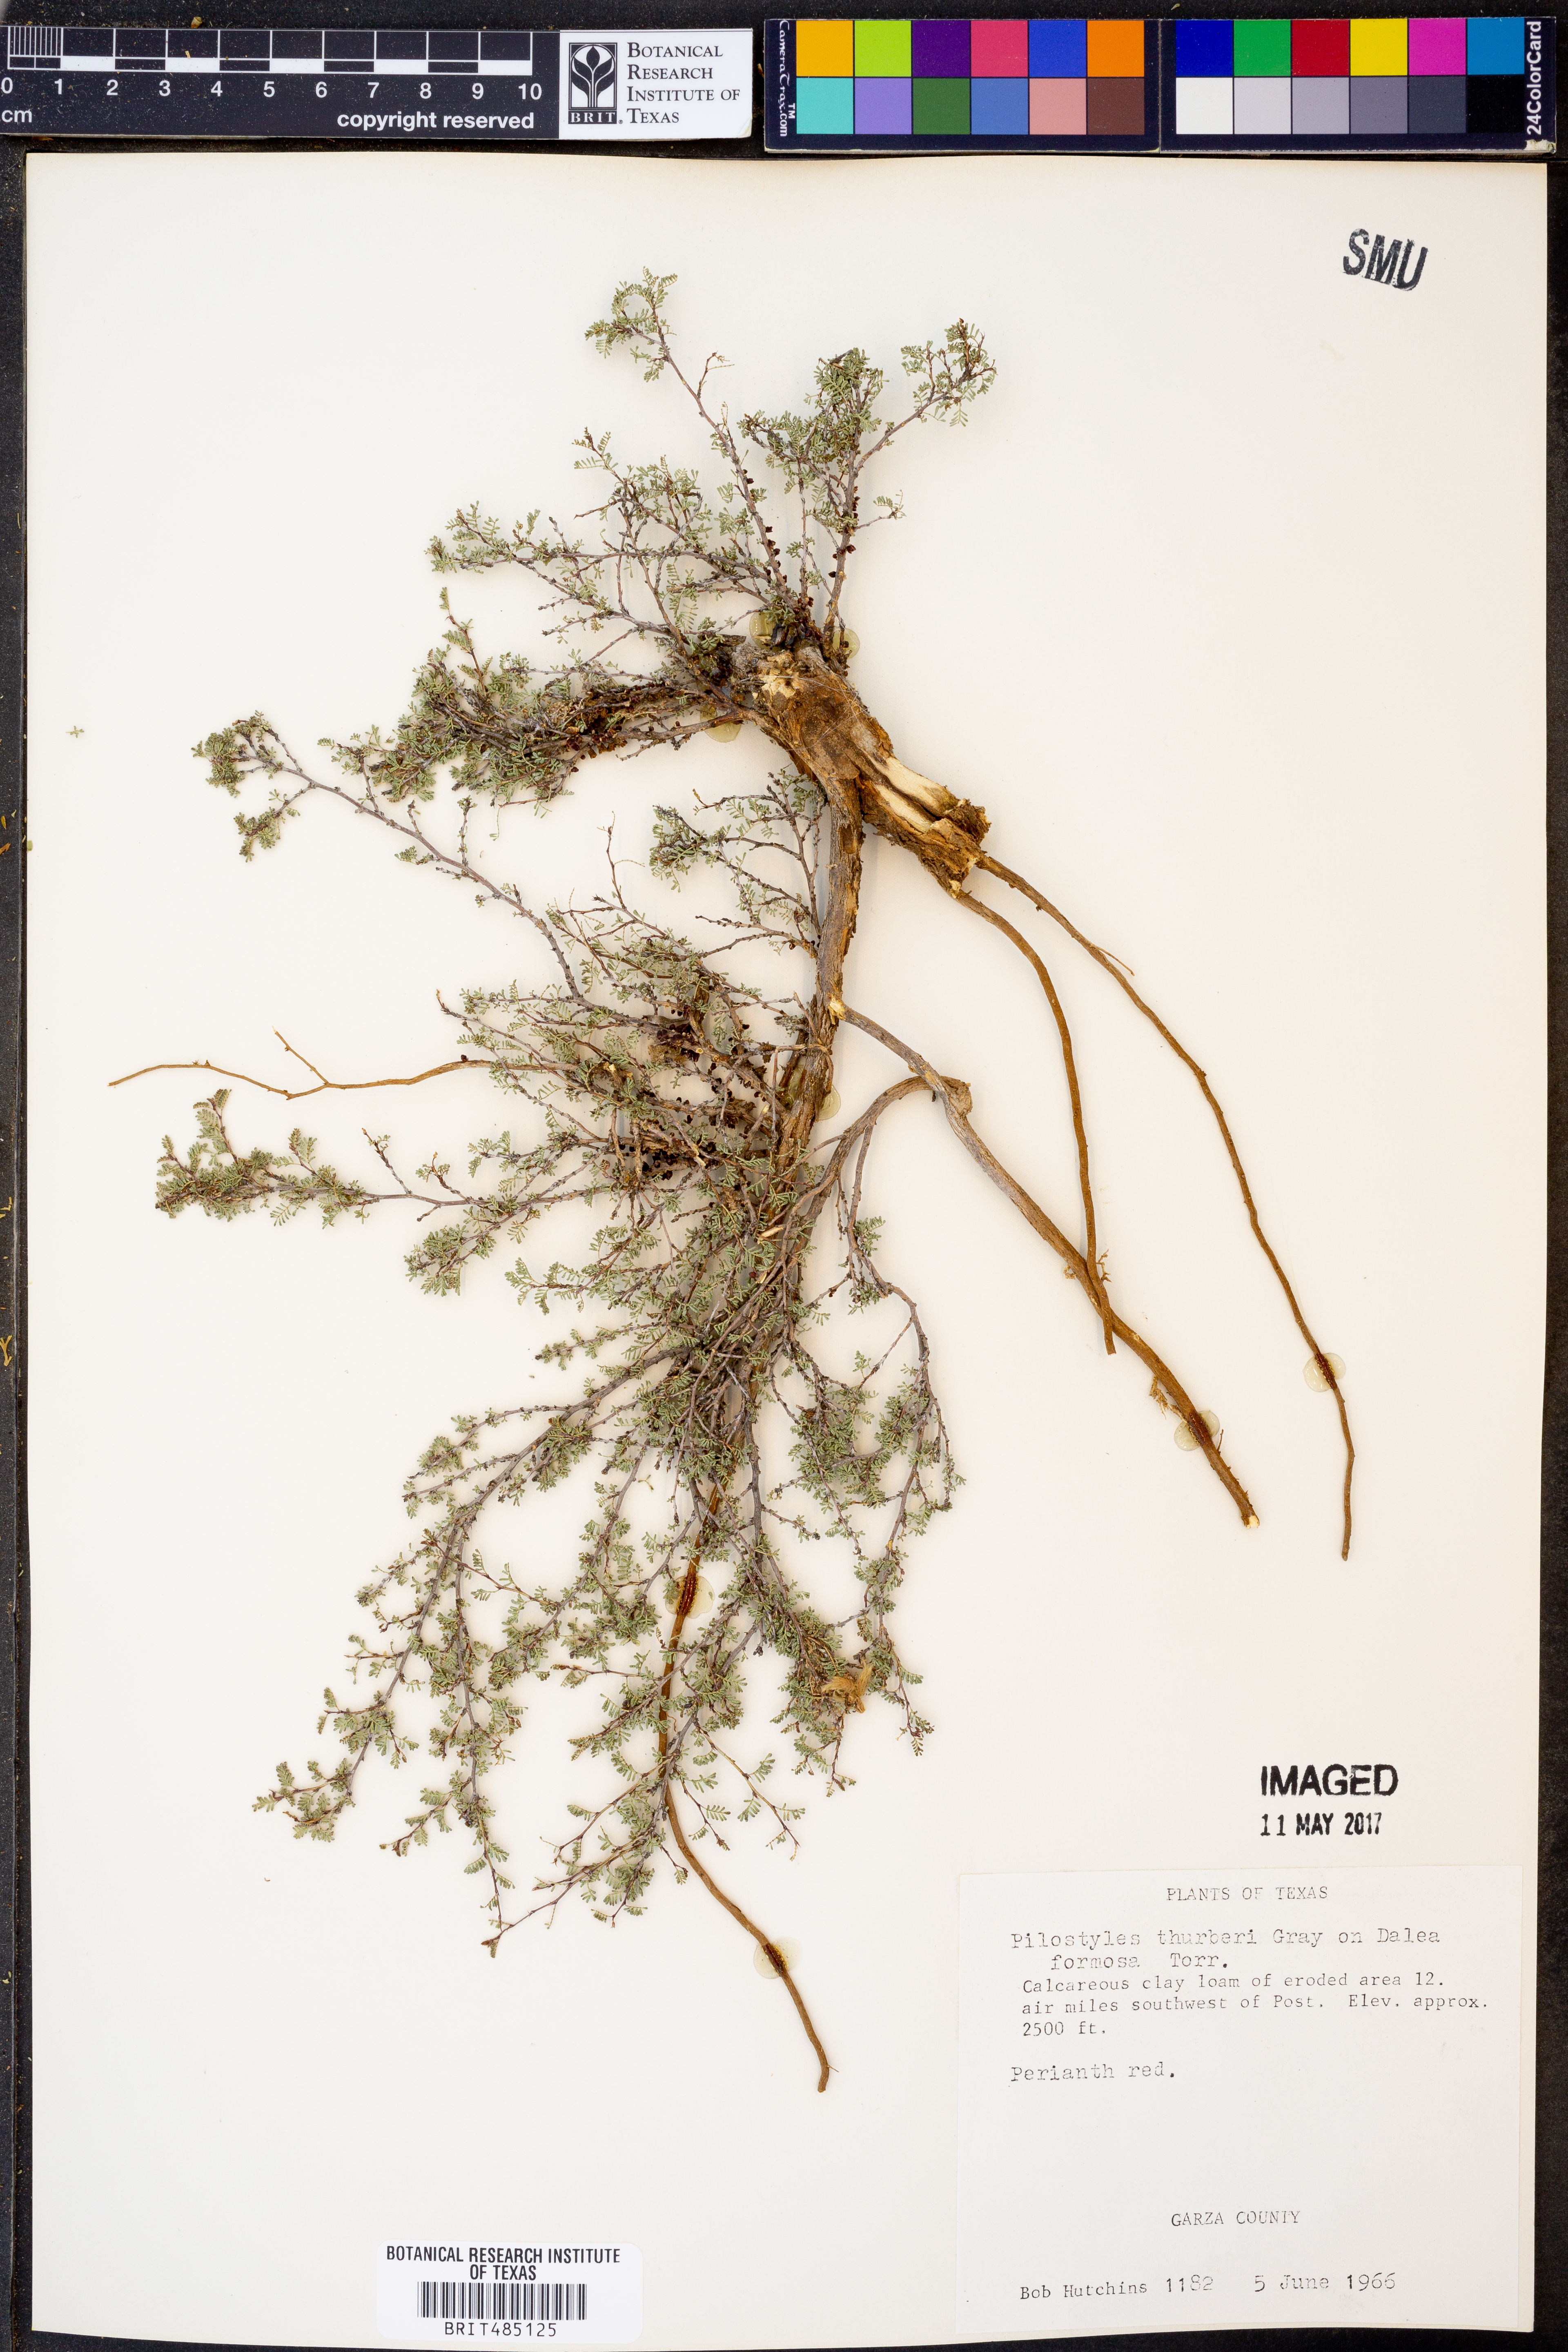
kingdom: Plantae
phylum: Tracheophyta
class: Magnoliopsida
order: Cucurbitales
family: Apodanthaceae
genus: Pilostyles
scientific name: Pilostyles thurberi
